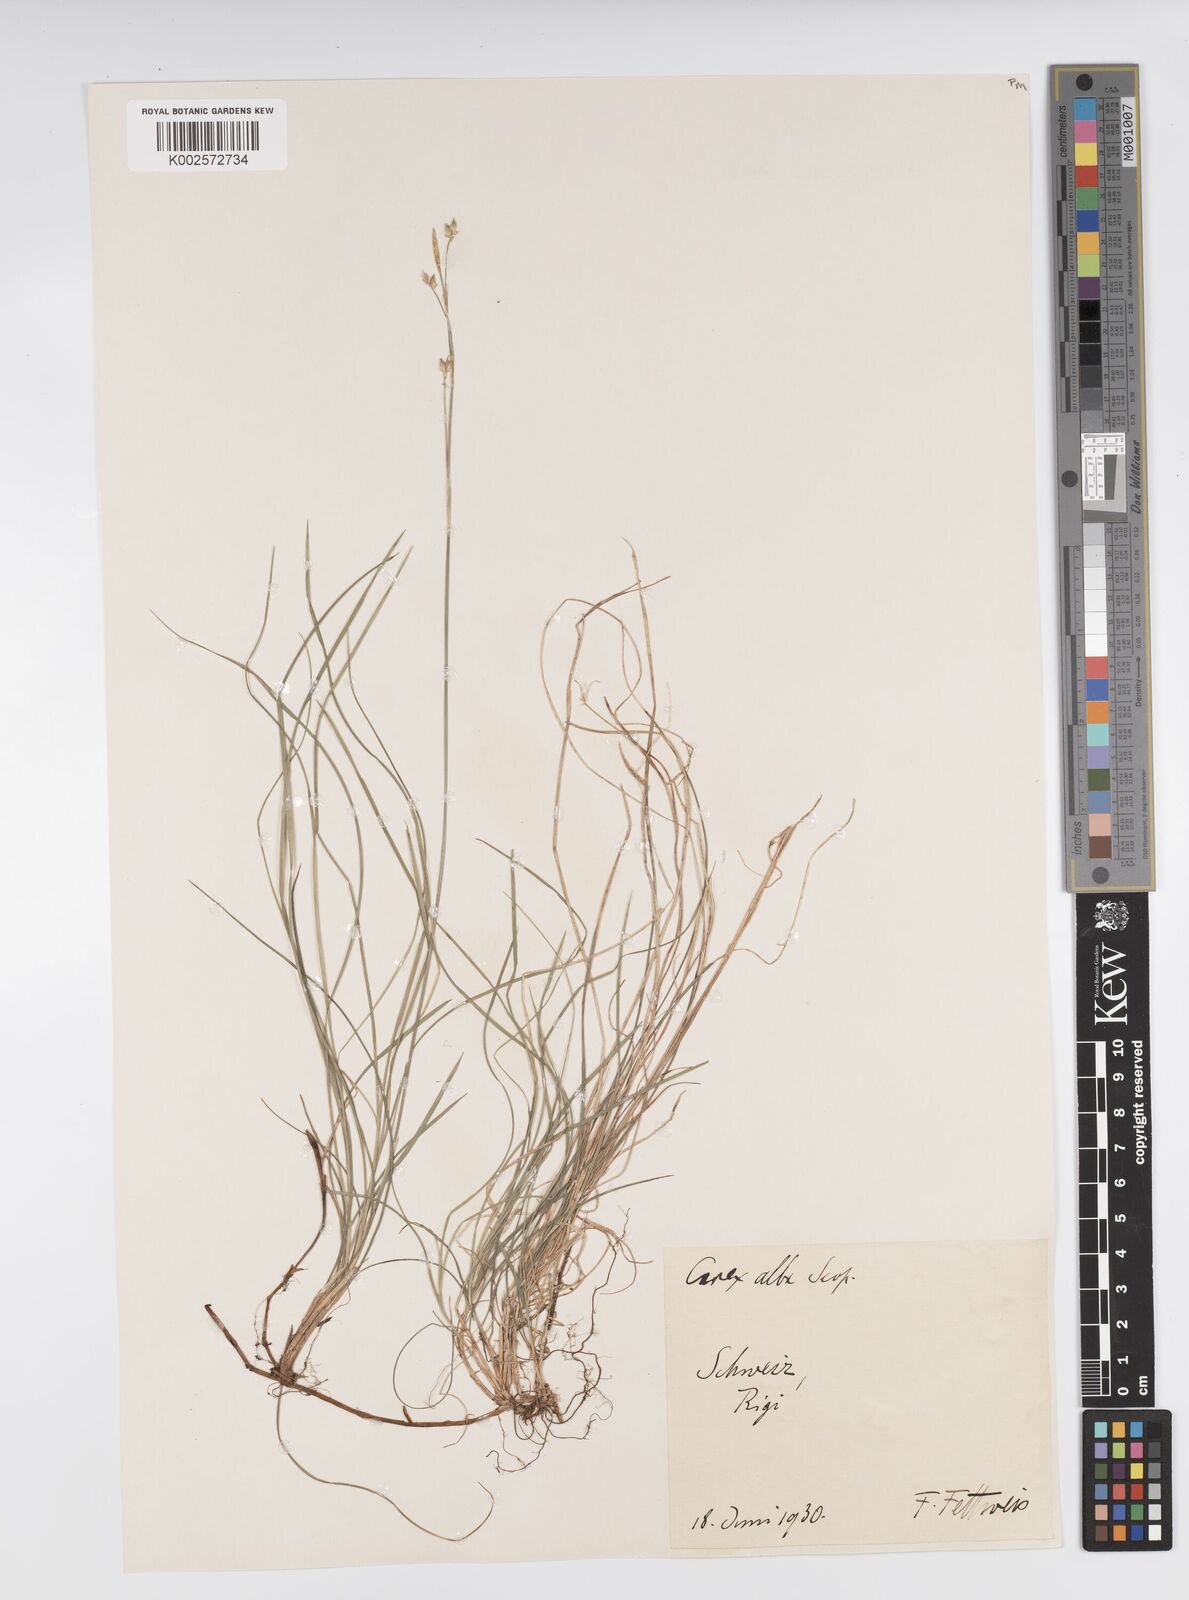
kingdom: Plantae
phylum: Tracheophyta
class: Liliopsida
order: Poales
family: Cyperaceae
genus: Carex
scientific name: Carex alba
